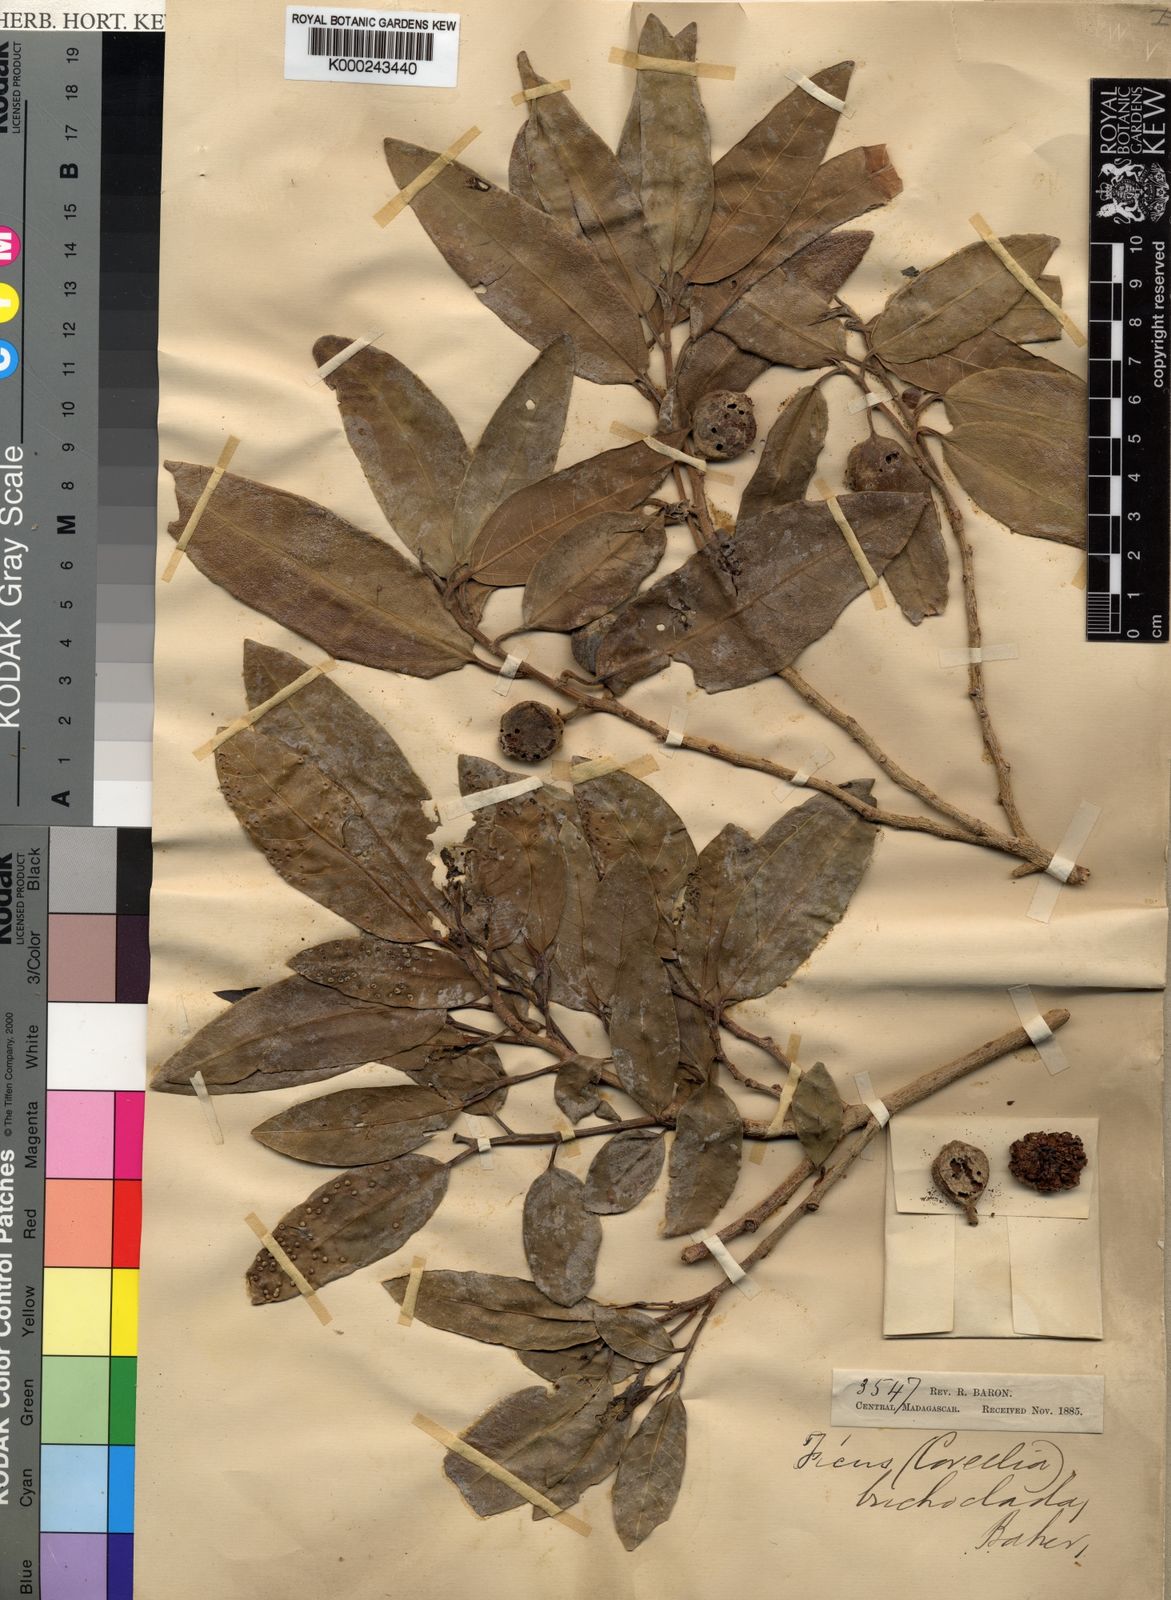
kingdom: Plantae
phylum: Tracheophyta
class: Magnoliopsida
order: Rosales
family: Moraceae
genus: Ficus
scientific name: Ficus polyphlebia
